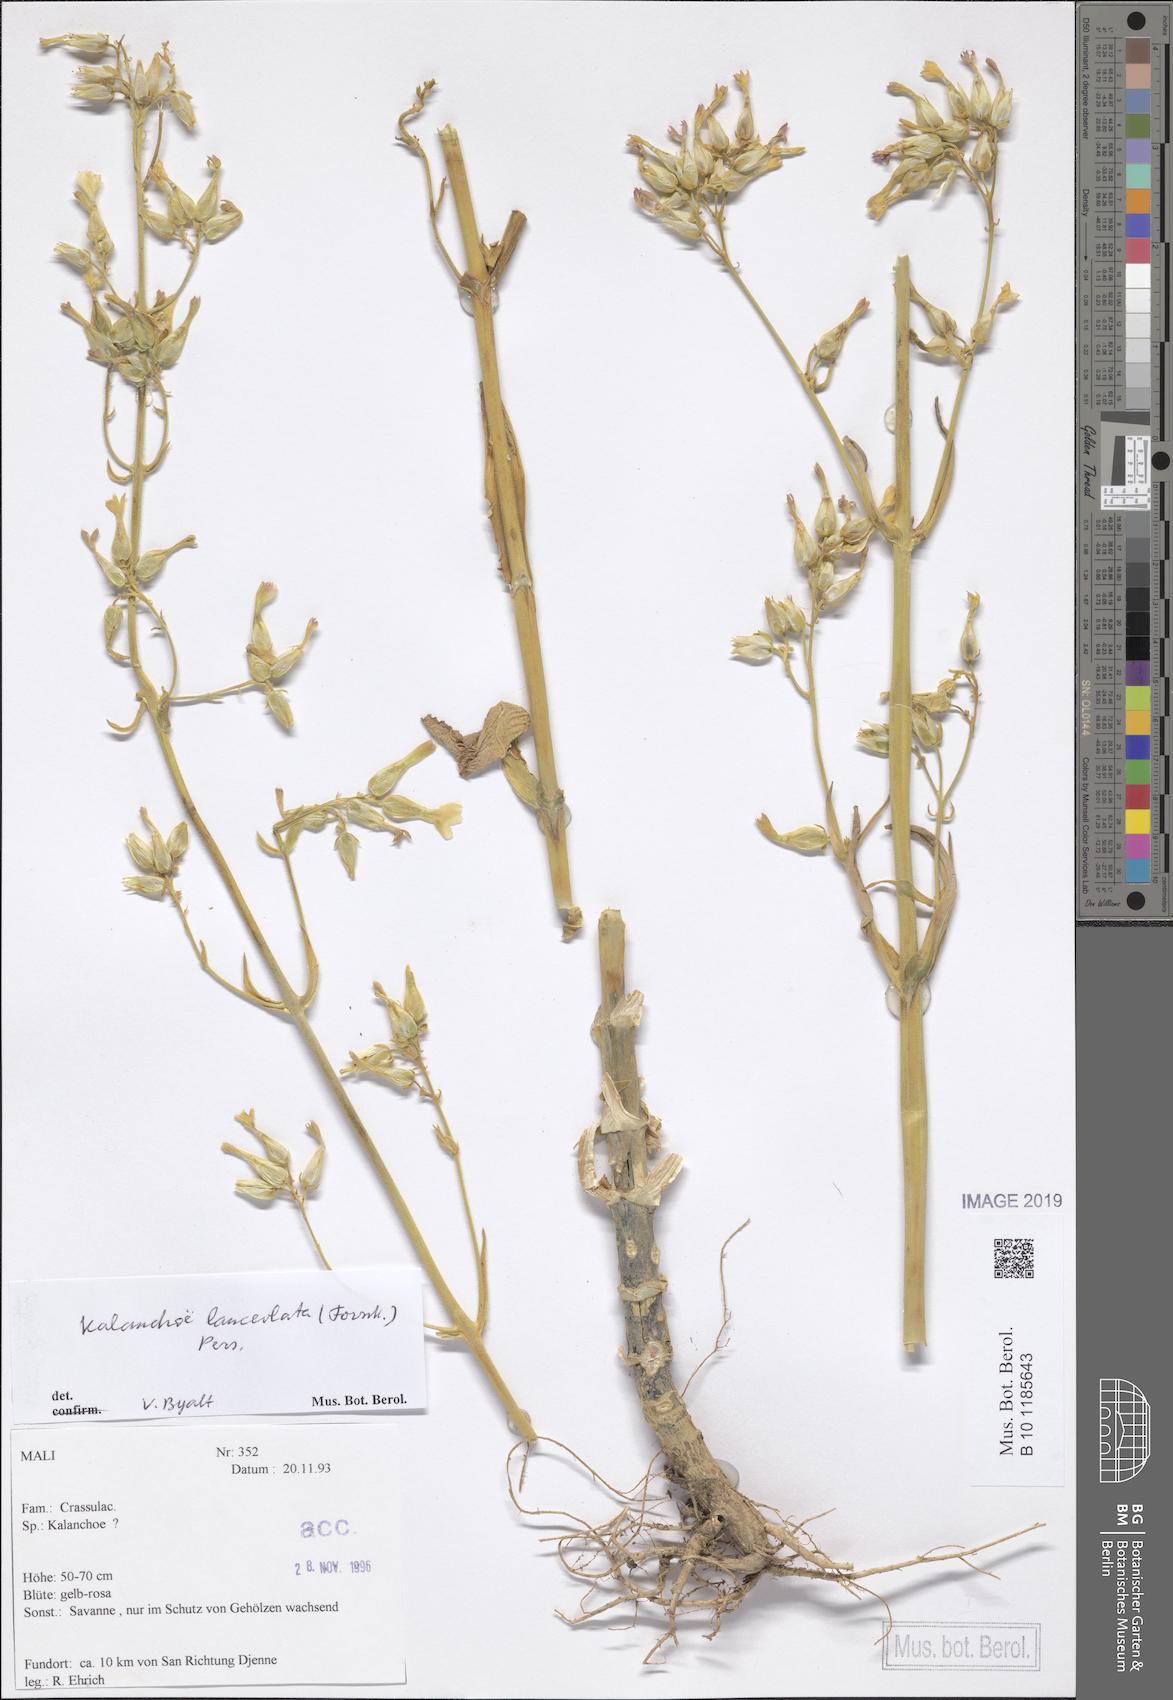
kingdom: Plantae
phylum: Tracheophyta
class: Magnoliopsida
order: Saxifragales
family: Crassulaceae
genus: Kalanchoe
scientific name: Kalanchoe lanceolata
